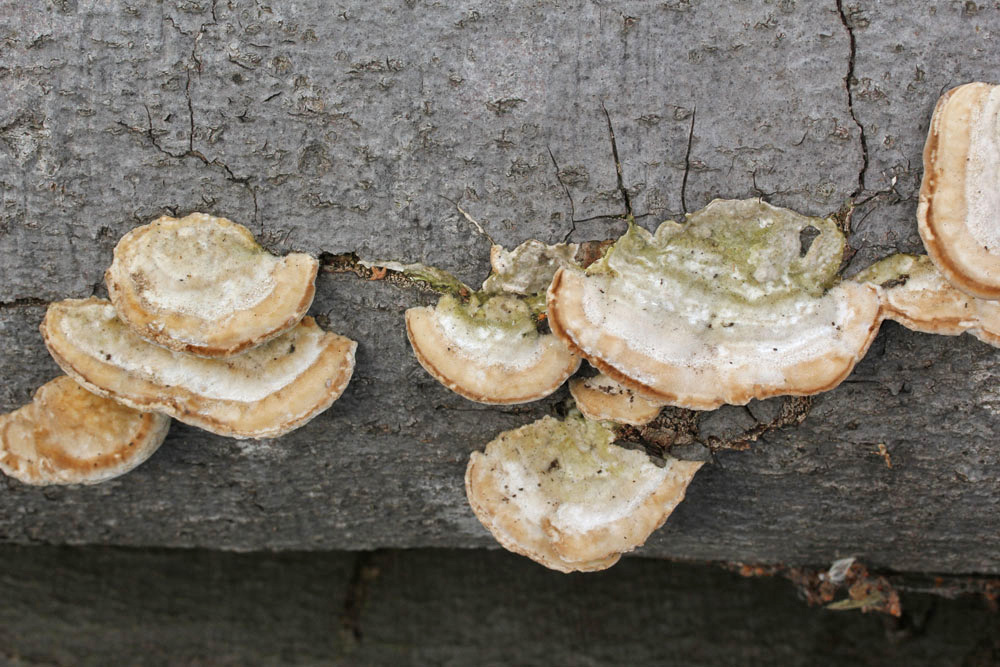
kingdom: Fungi
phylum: Basidiomycota
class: Agaricomycetes
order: Polyporales
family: Polyporaceae
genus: Trametes
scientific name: Trametes gibbosa
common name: puklet læderporesvamp
